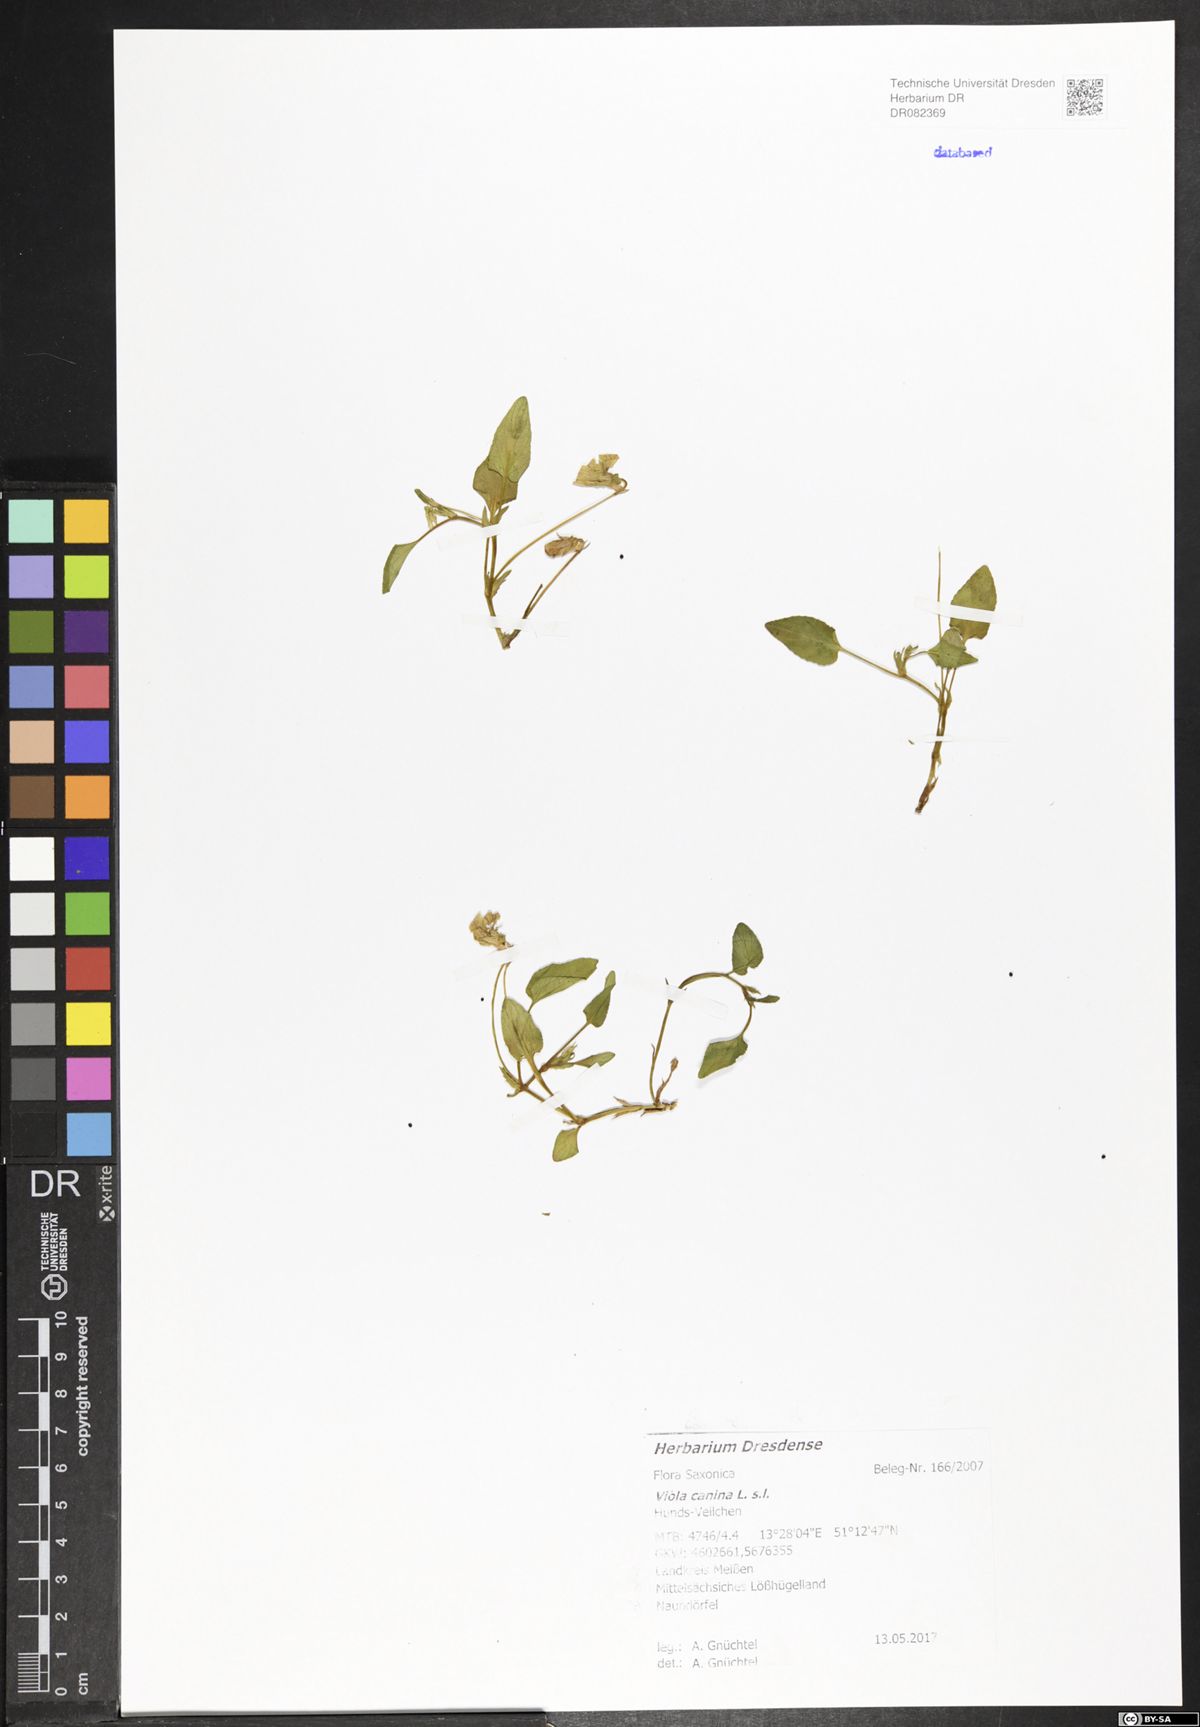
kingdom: Plantae
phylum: Tracheophyta
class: Magnoliopsida
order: Malpighiales
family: Violaceae
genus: Viola
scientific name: Viola canina
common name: Heath dog-violet
